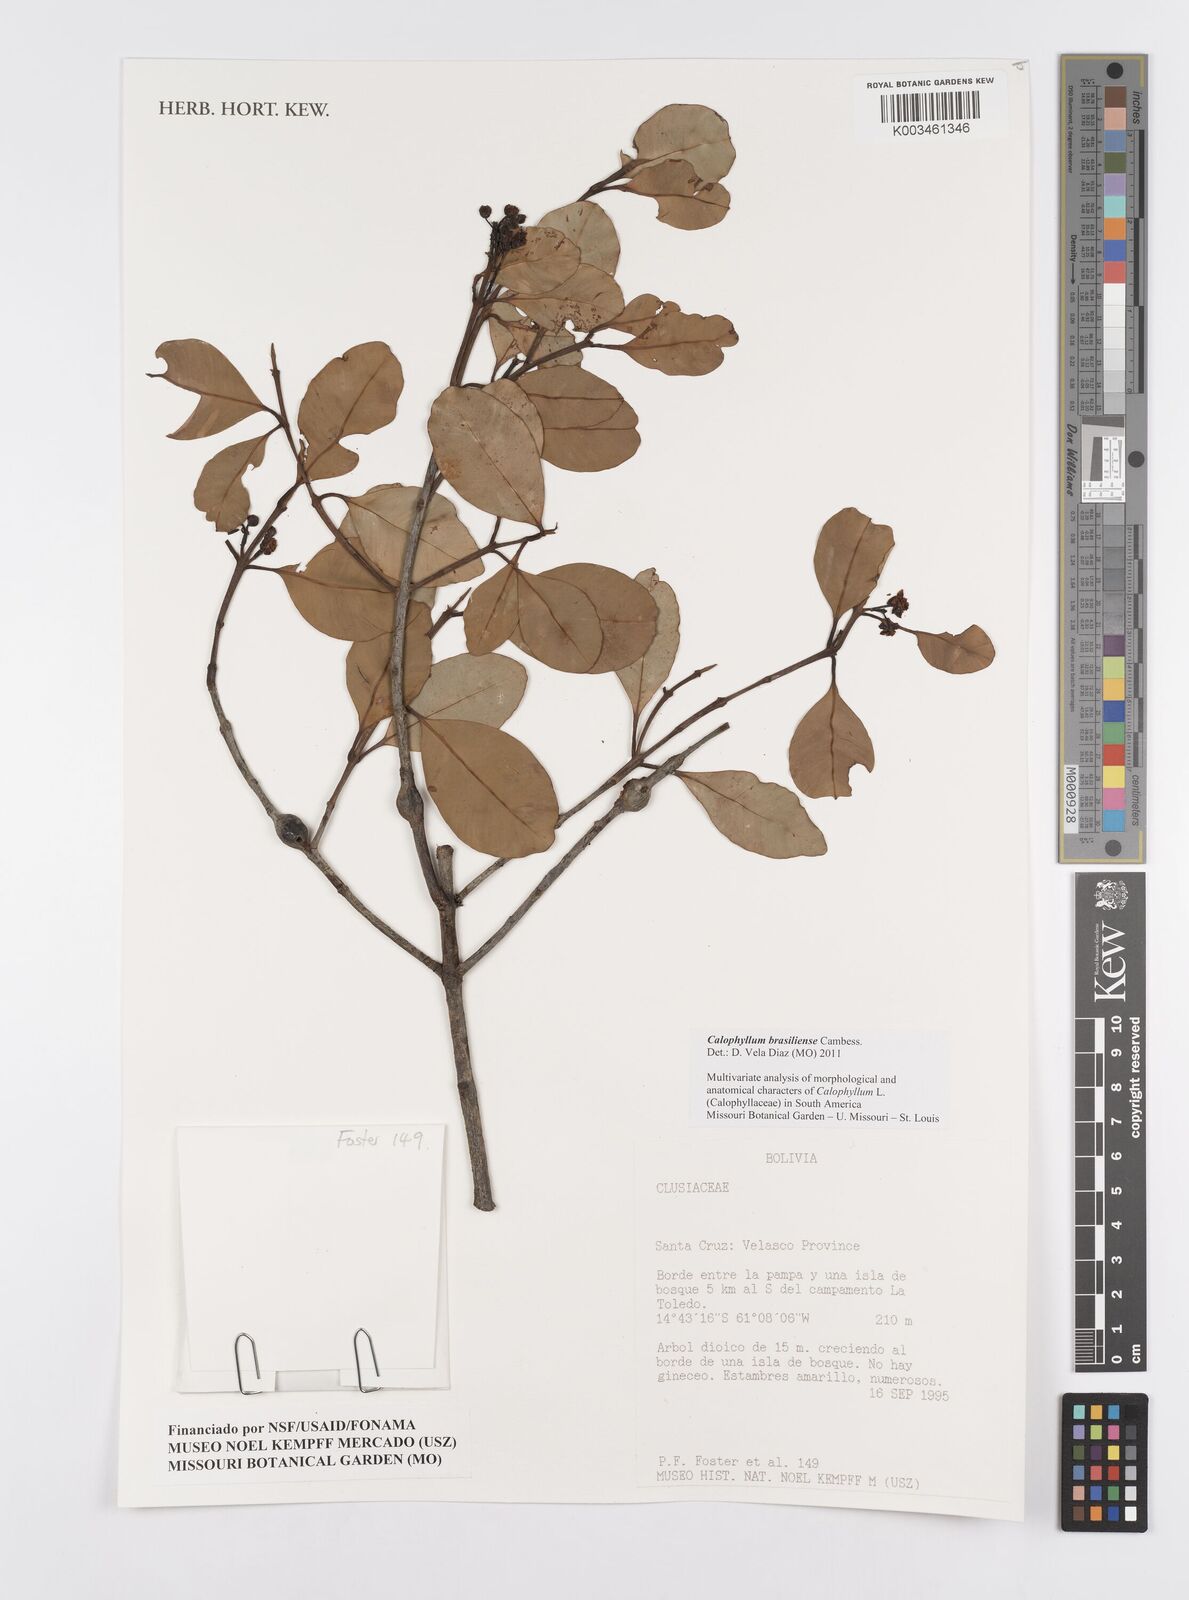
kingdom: Plantae
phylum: Tracheophyta
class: Magnoliopsida
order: Malpighiales
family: Calophyllaceae
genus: Calophyllum
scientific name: Calophyllum brasiliense
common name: Santa maria
